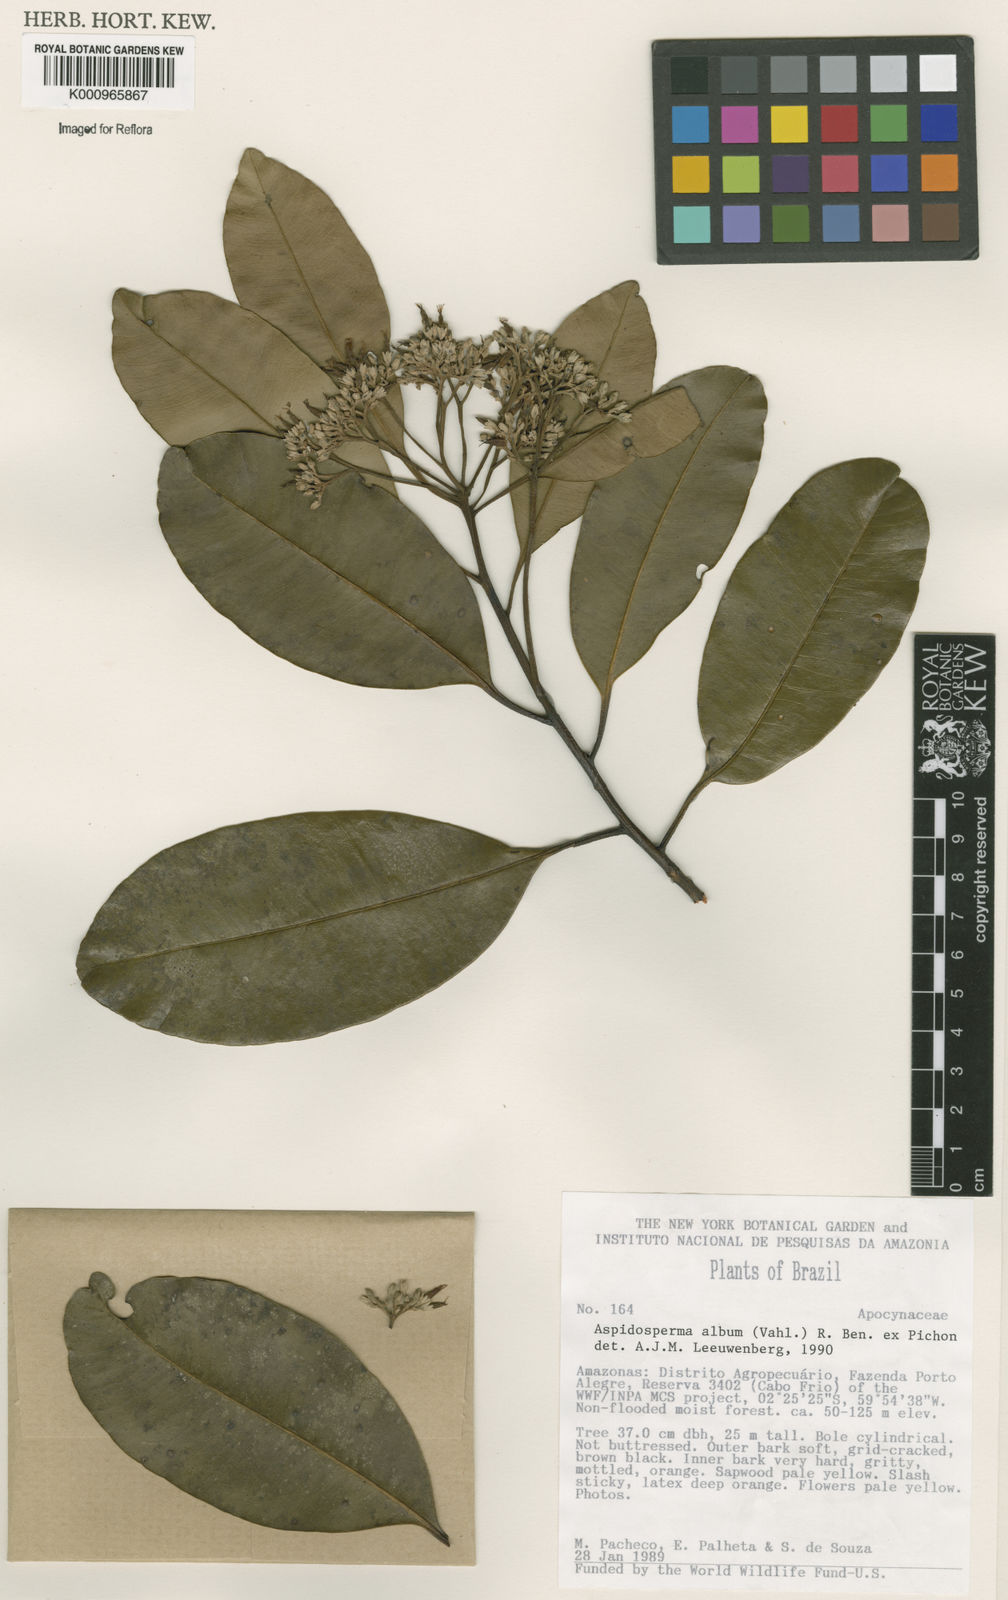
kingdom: Plantae
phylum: Tracheophyta
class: Magnoliopsida
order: Gentianales
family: Apocynaceae
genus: Aspidosperma
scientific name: Aspidosperma album
